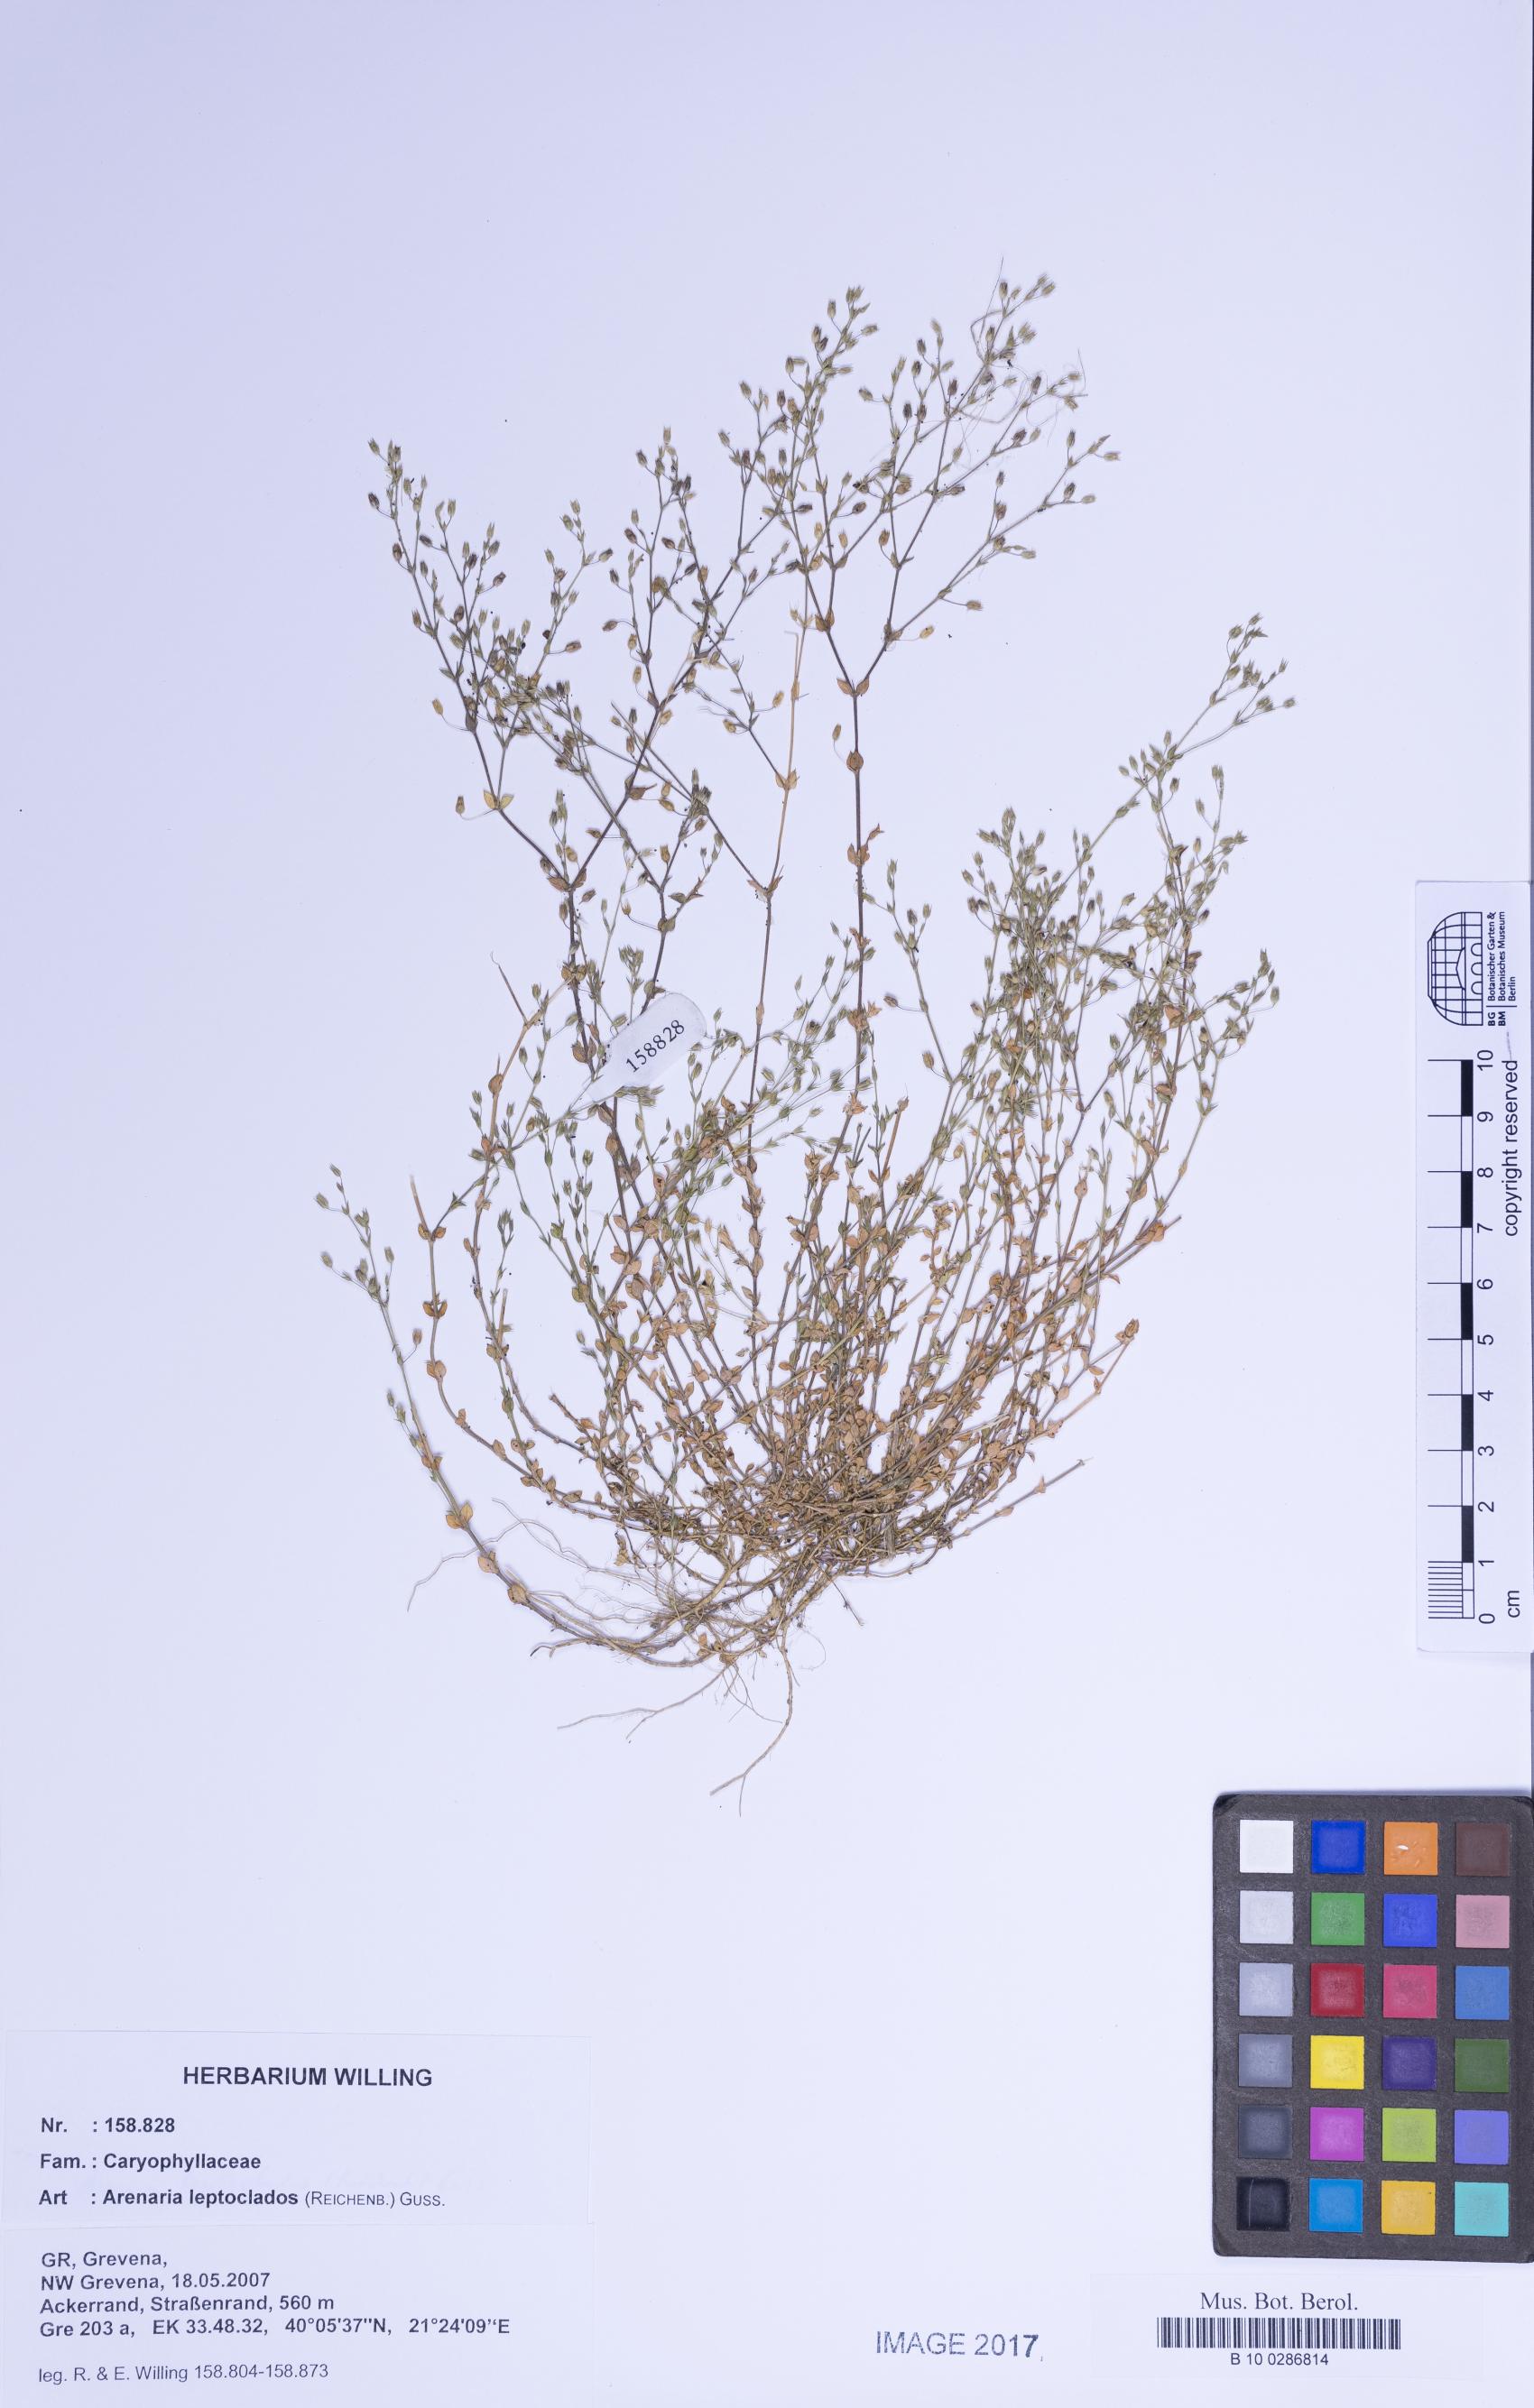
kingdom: Plantae
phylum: Tracheophyta
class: Magnoliopsida
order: Caryophyllales
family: Caryophyllaceae
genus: Arenaria
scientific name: Arenaria leptoclados
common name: Thyme-leaved sandwort
